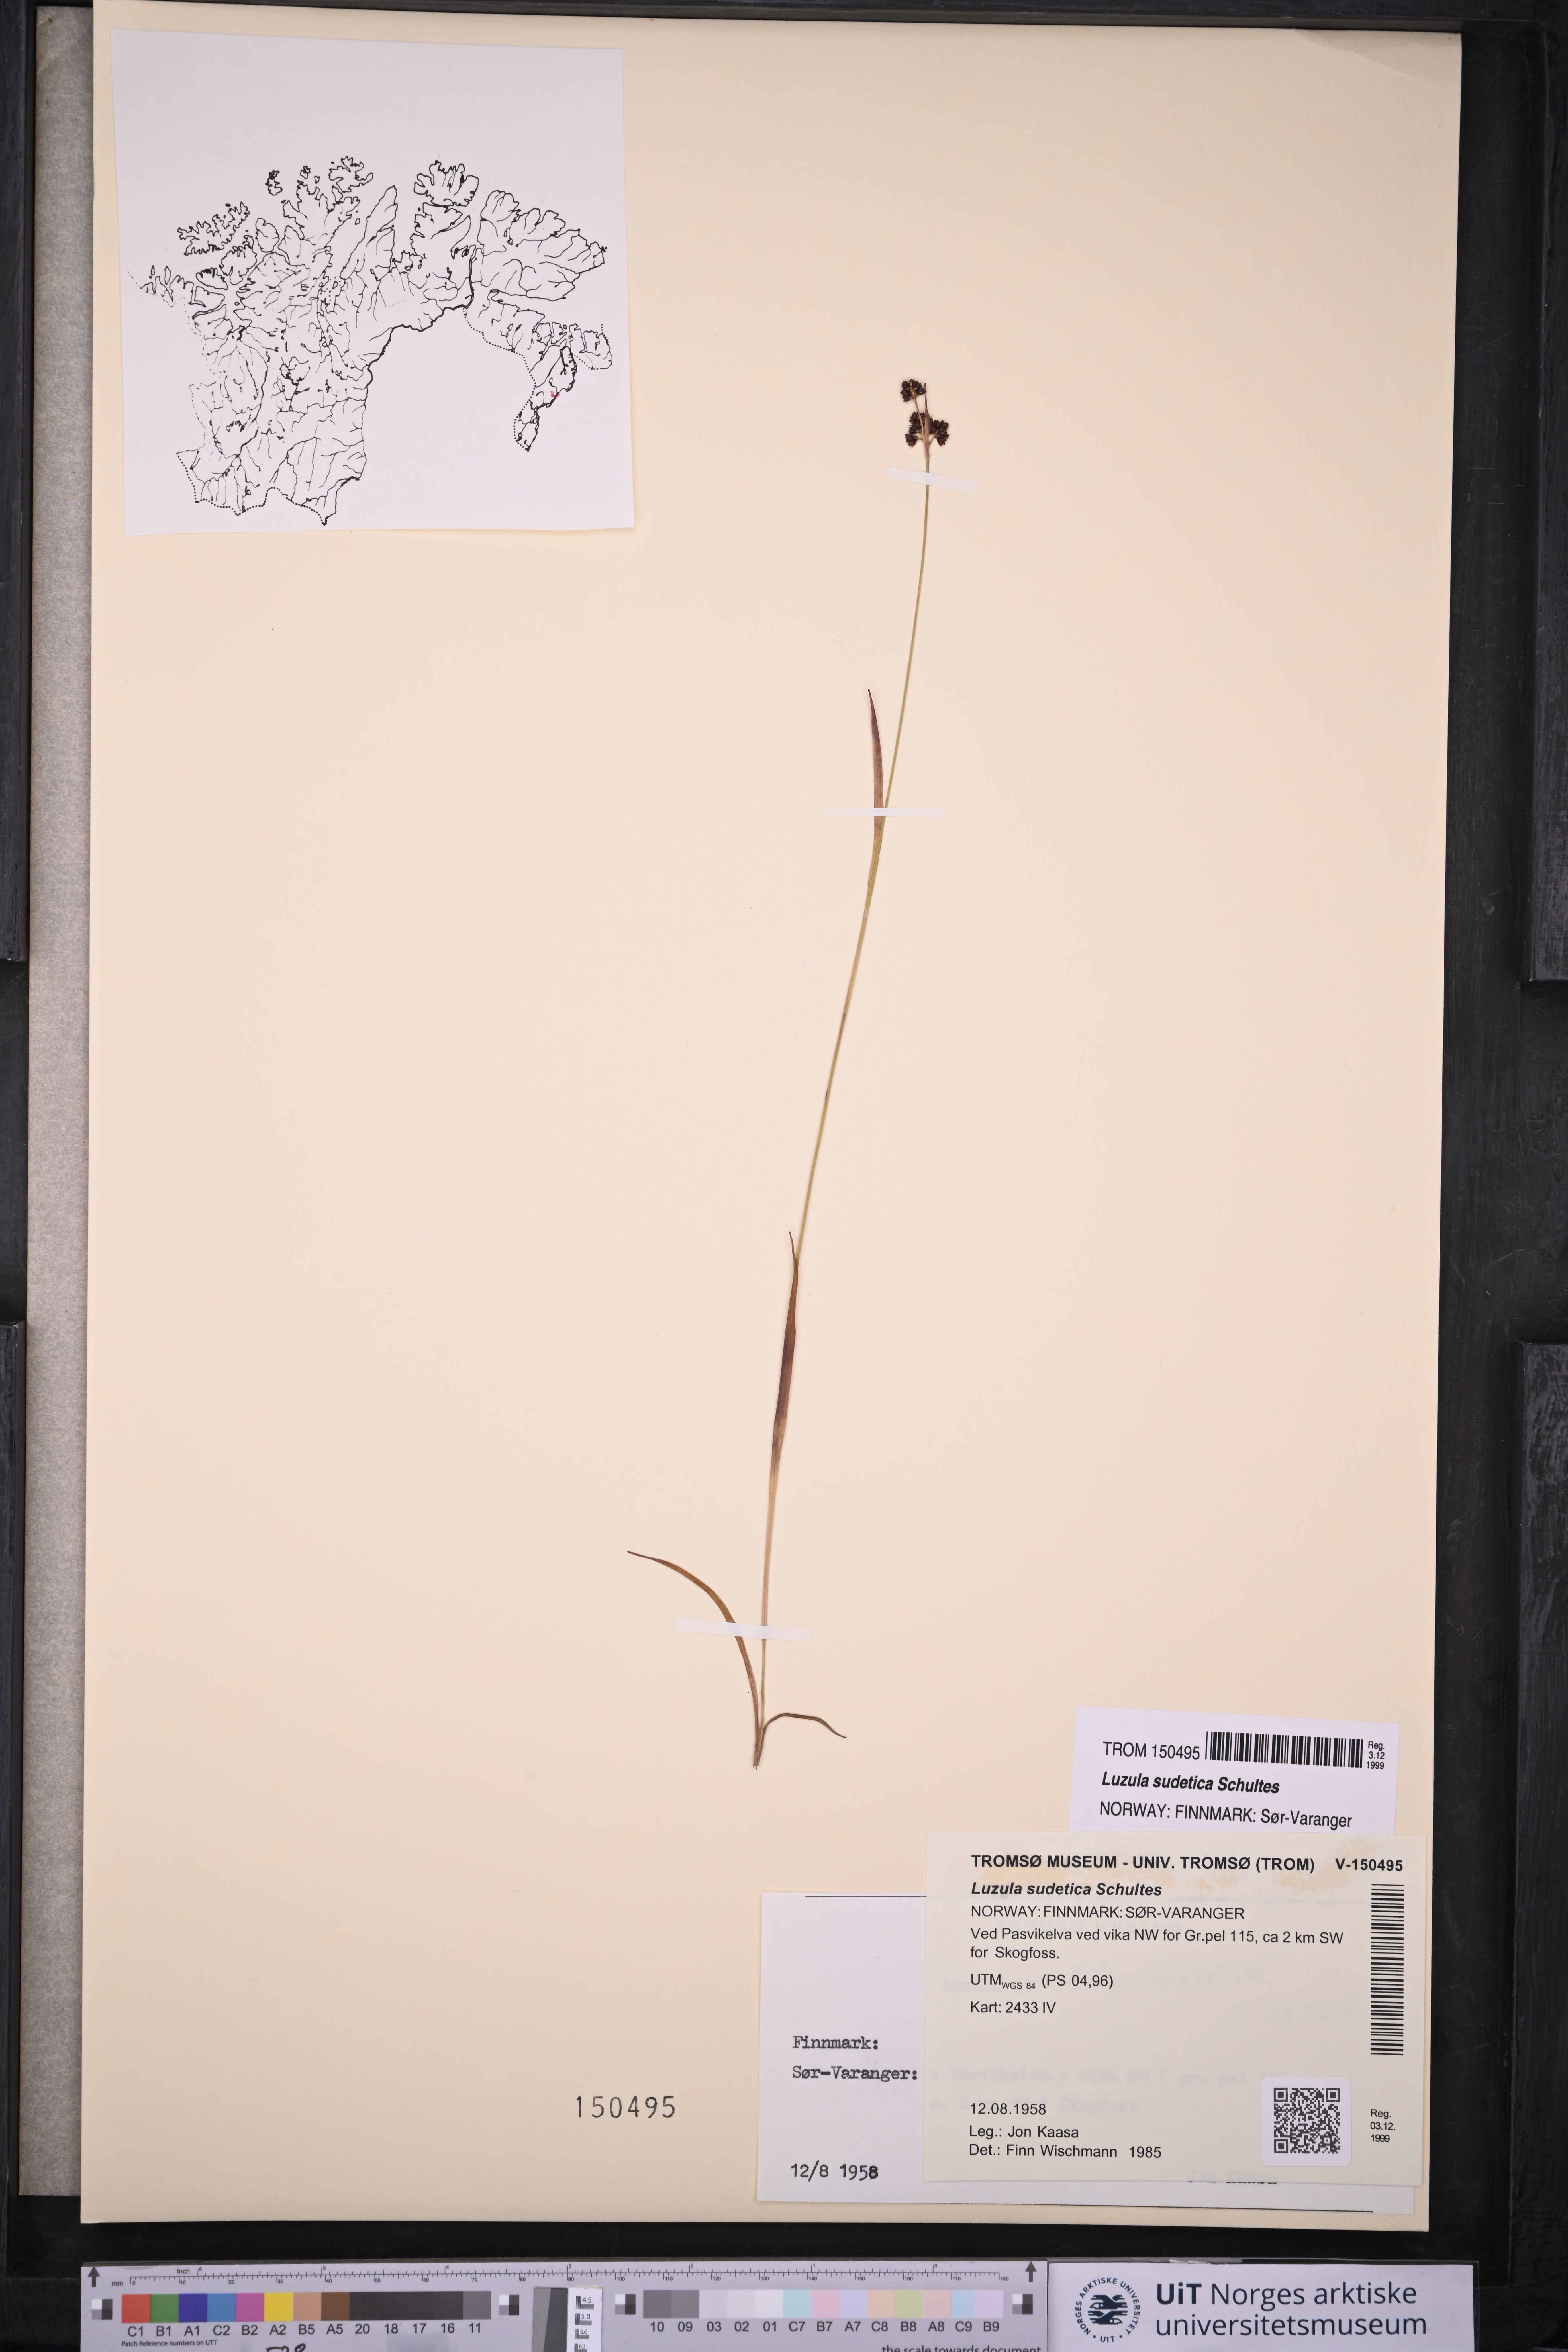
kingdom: Plantae
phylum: Tracheophyta
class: Liliopsida
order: Poales
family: Juncaceae
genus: Luzula
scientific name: Luzula sudetica
